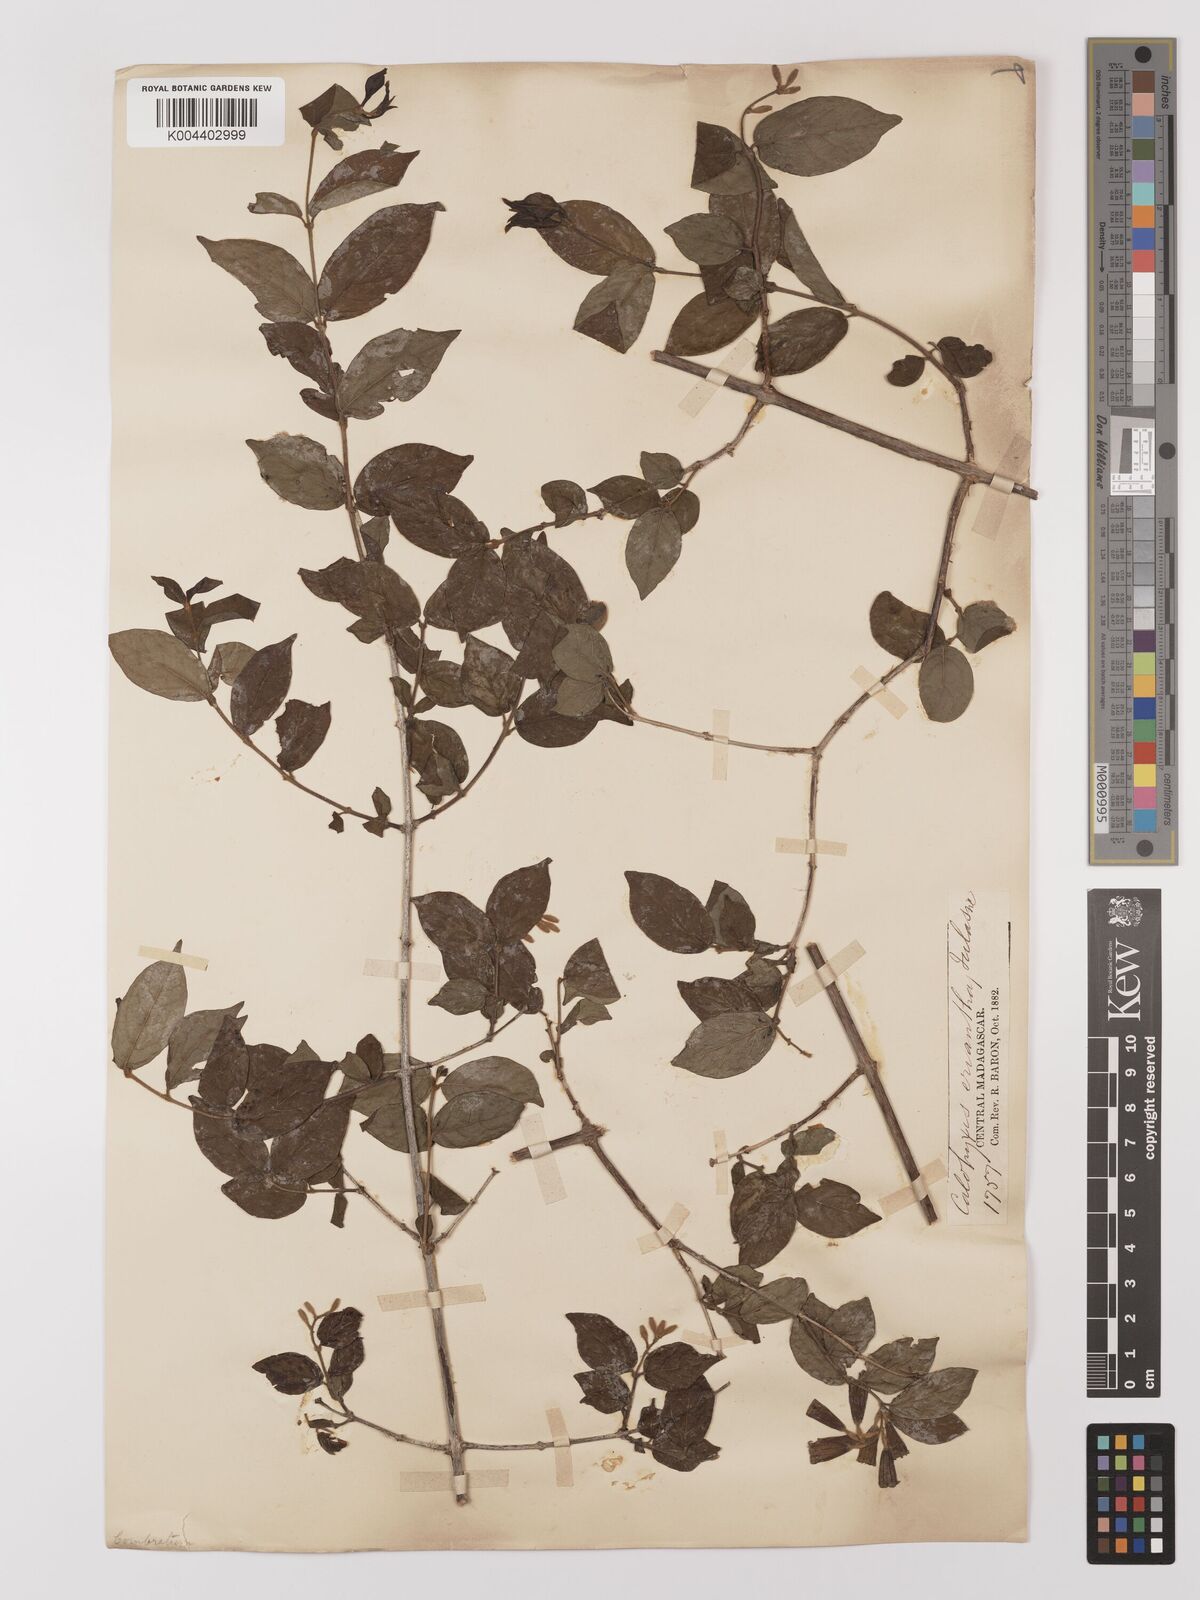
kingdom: Plantae
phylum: Tracheophyta
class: Magnoliopsida
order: Myrtales
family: Combretaceae
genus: Combretum
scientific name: Combretum longicollum
